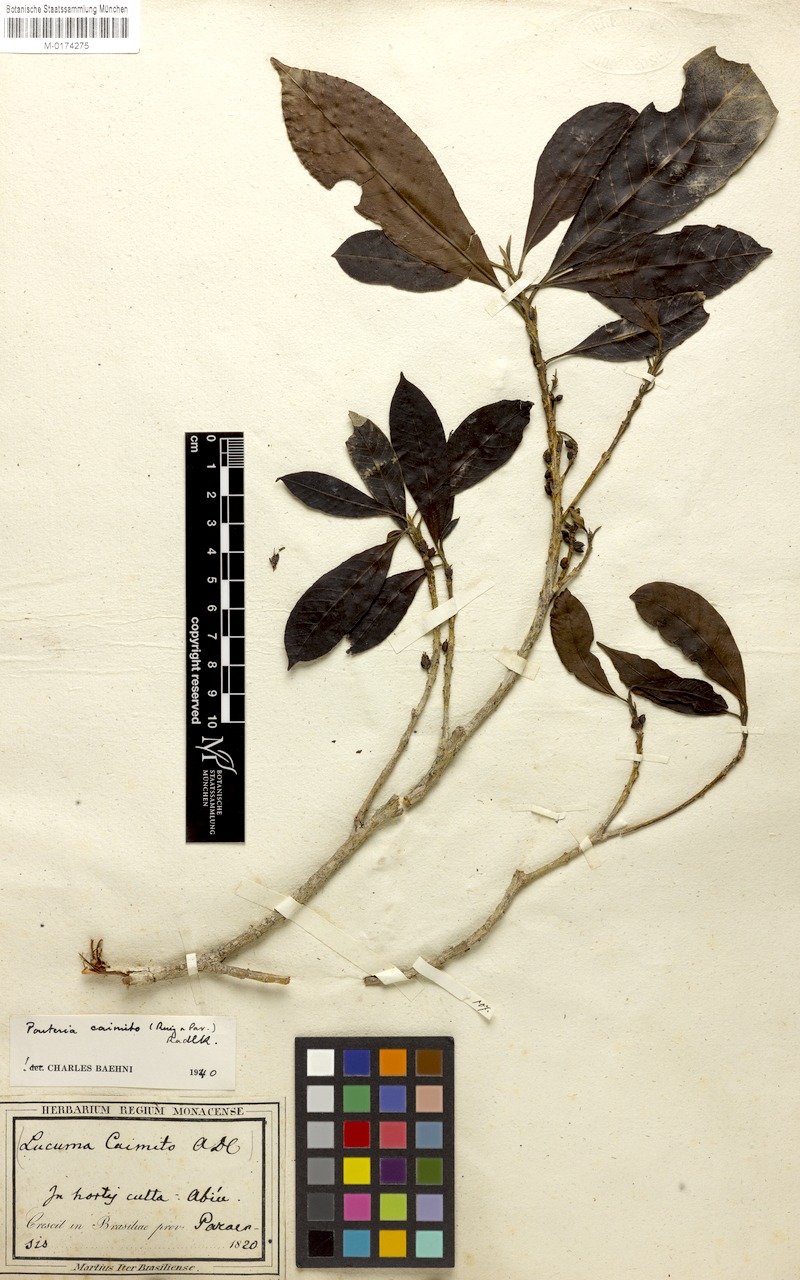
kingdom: Plantae
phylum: Tracheophyta
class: Magnoliopsida
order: Ericales
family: Sapotaceae
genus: Pouteria
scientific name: Pouteria caimito
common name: Caimito
